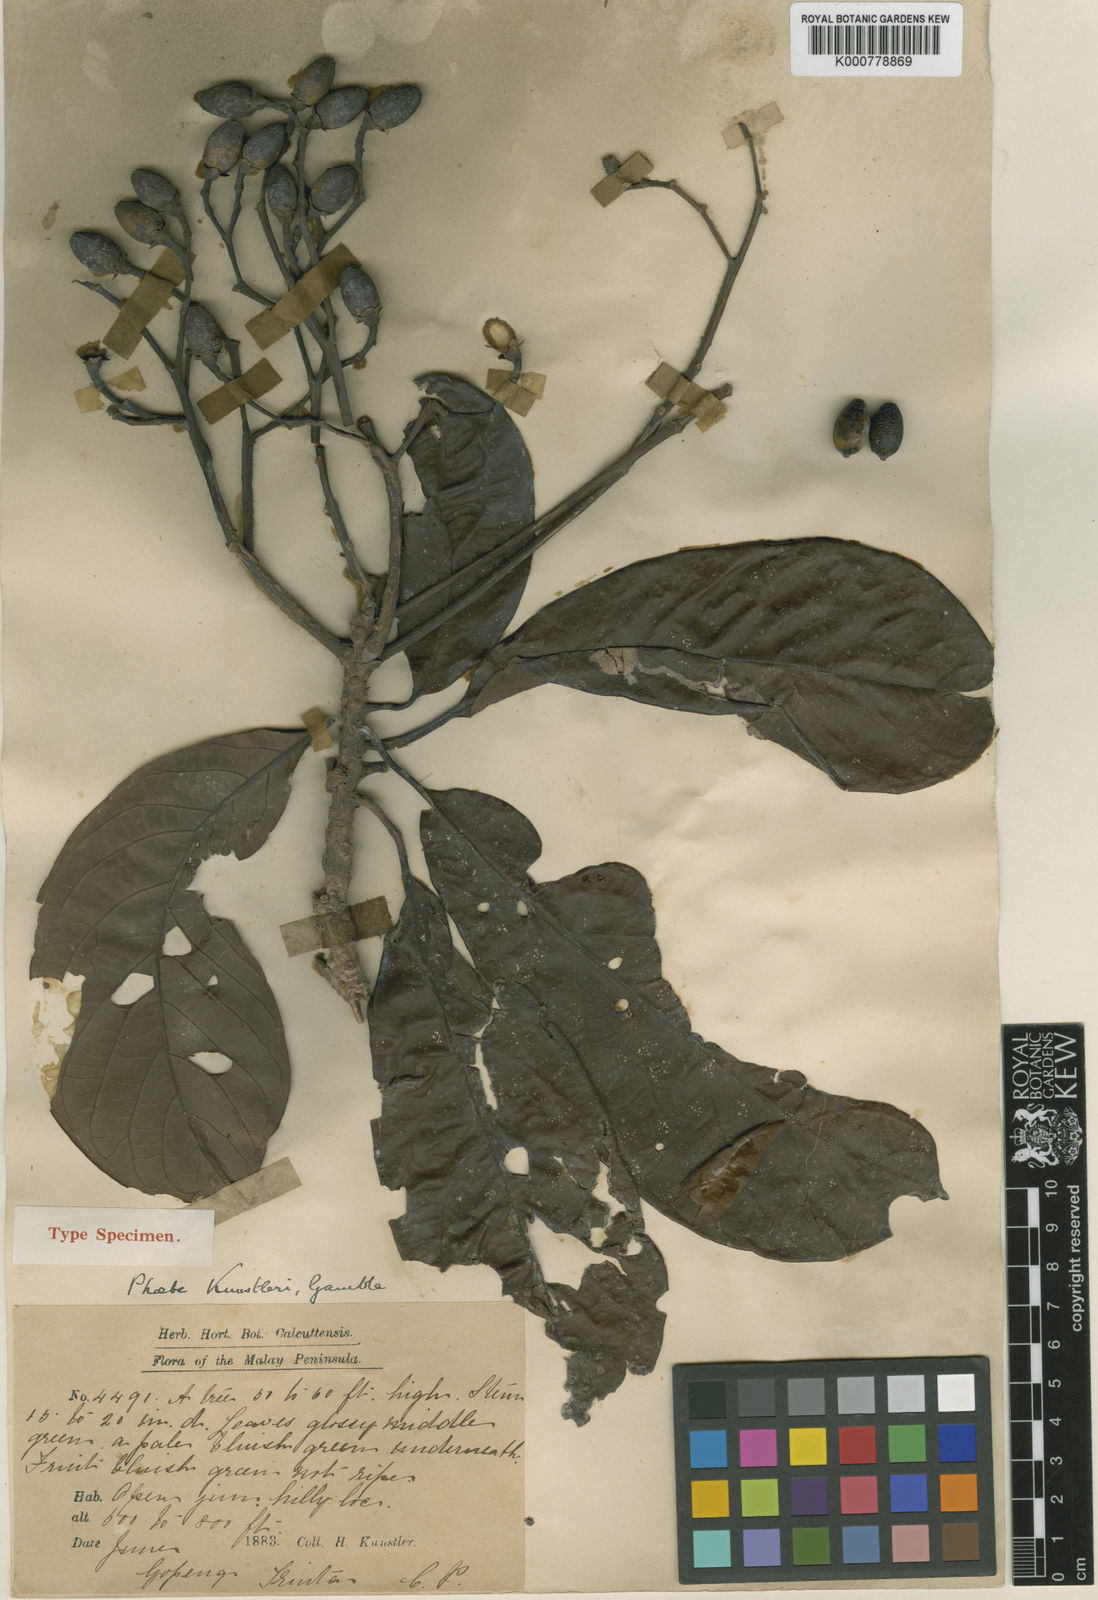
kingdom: Plantae
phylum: Tracheophyta
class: Magnoliopsida
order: Laurales
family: Lauraceae
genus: Phoebe
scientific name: Phoebe kunstleri
